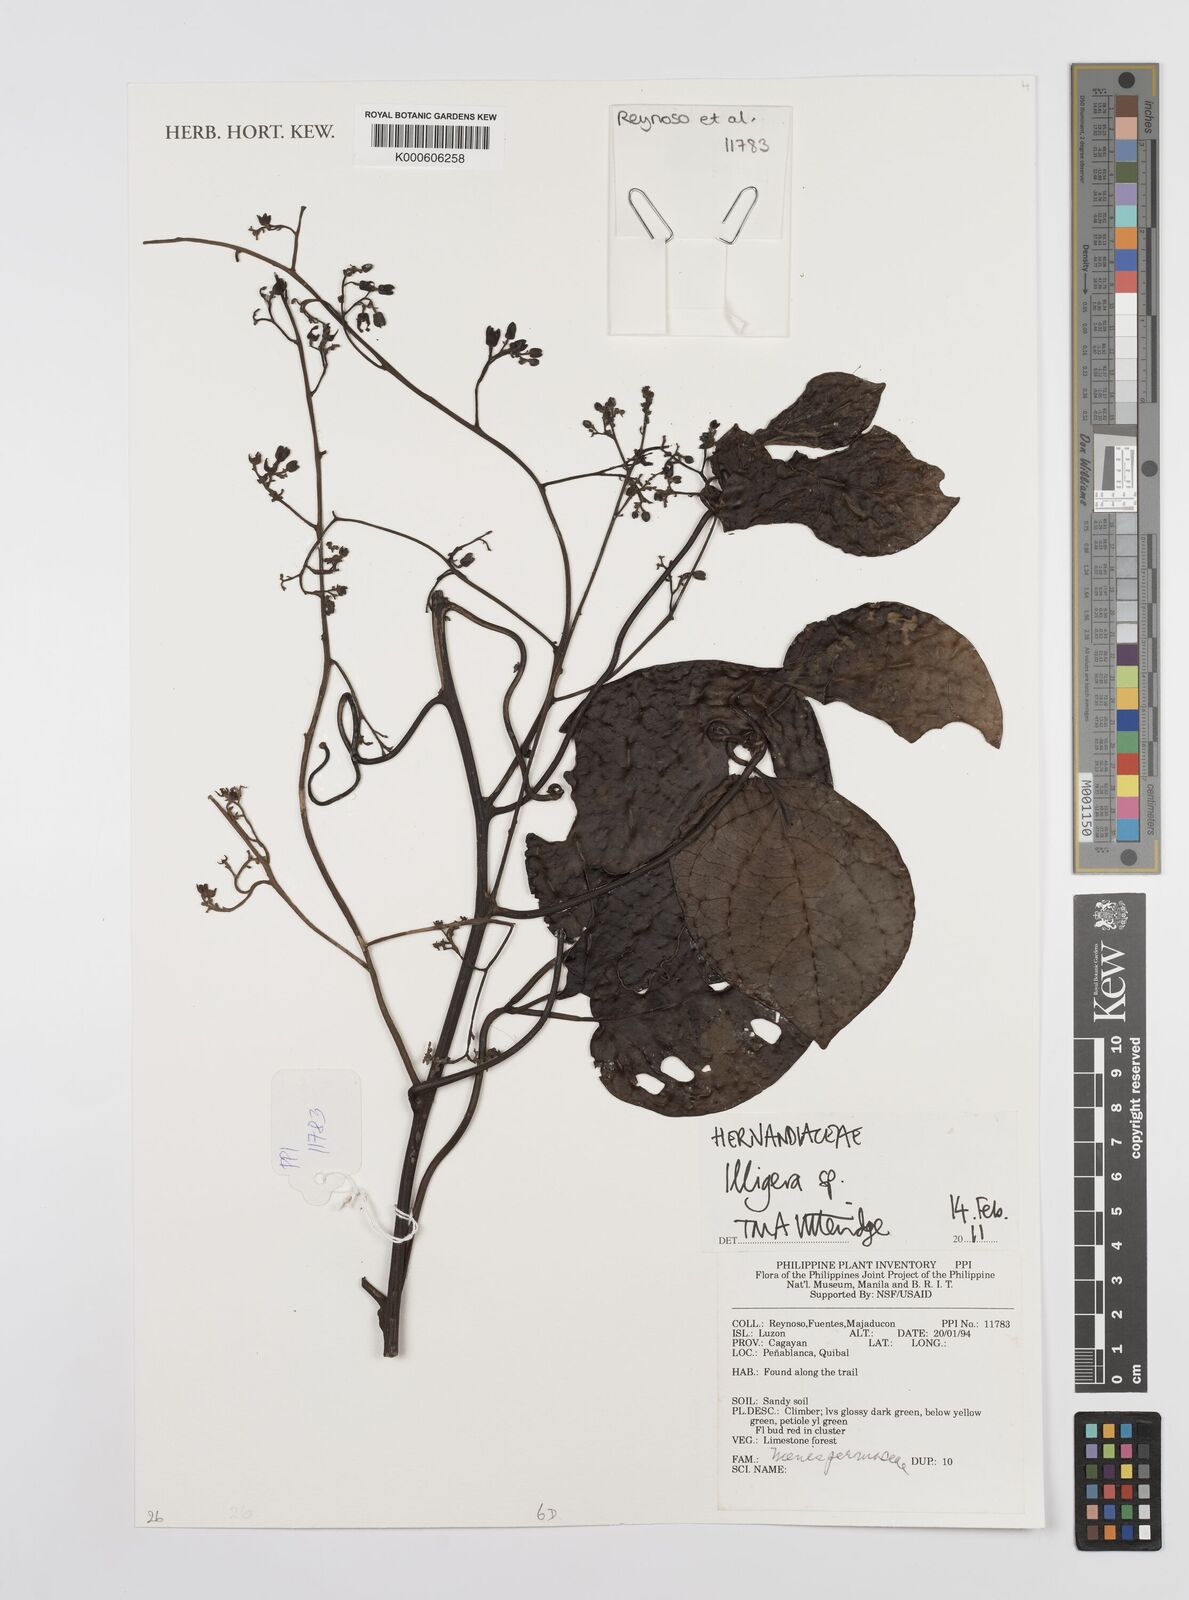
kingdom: Plantae
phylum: Tracheophyta
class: Magnoliopsida
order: Laurales
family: Hernandiaceae
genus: Illigera
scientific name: Illigera
